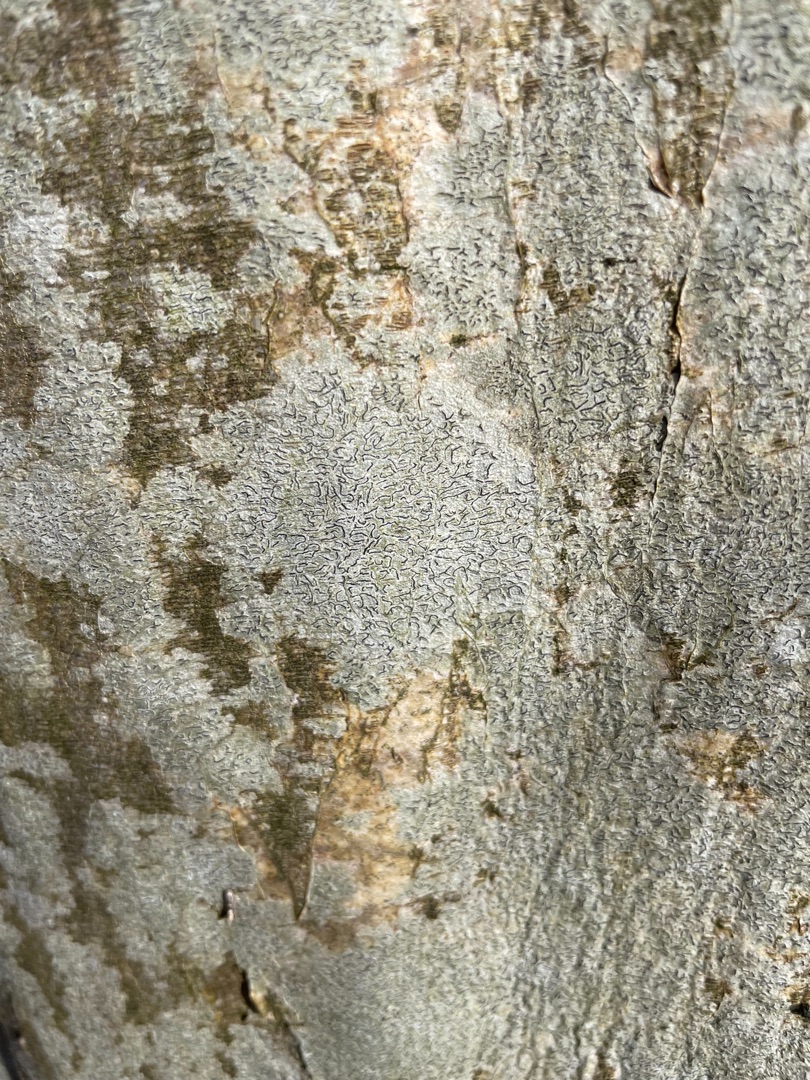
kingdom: Fungi
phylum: Ascomycota
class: Lecanoromycetes
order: Ostropales
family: Graphidaceae
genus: Graphis
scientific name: Graphis scripta
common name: Almindelig skriftlav
